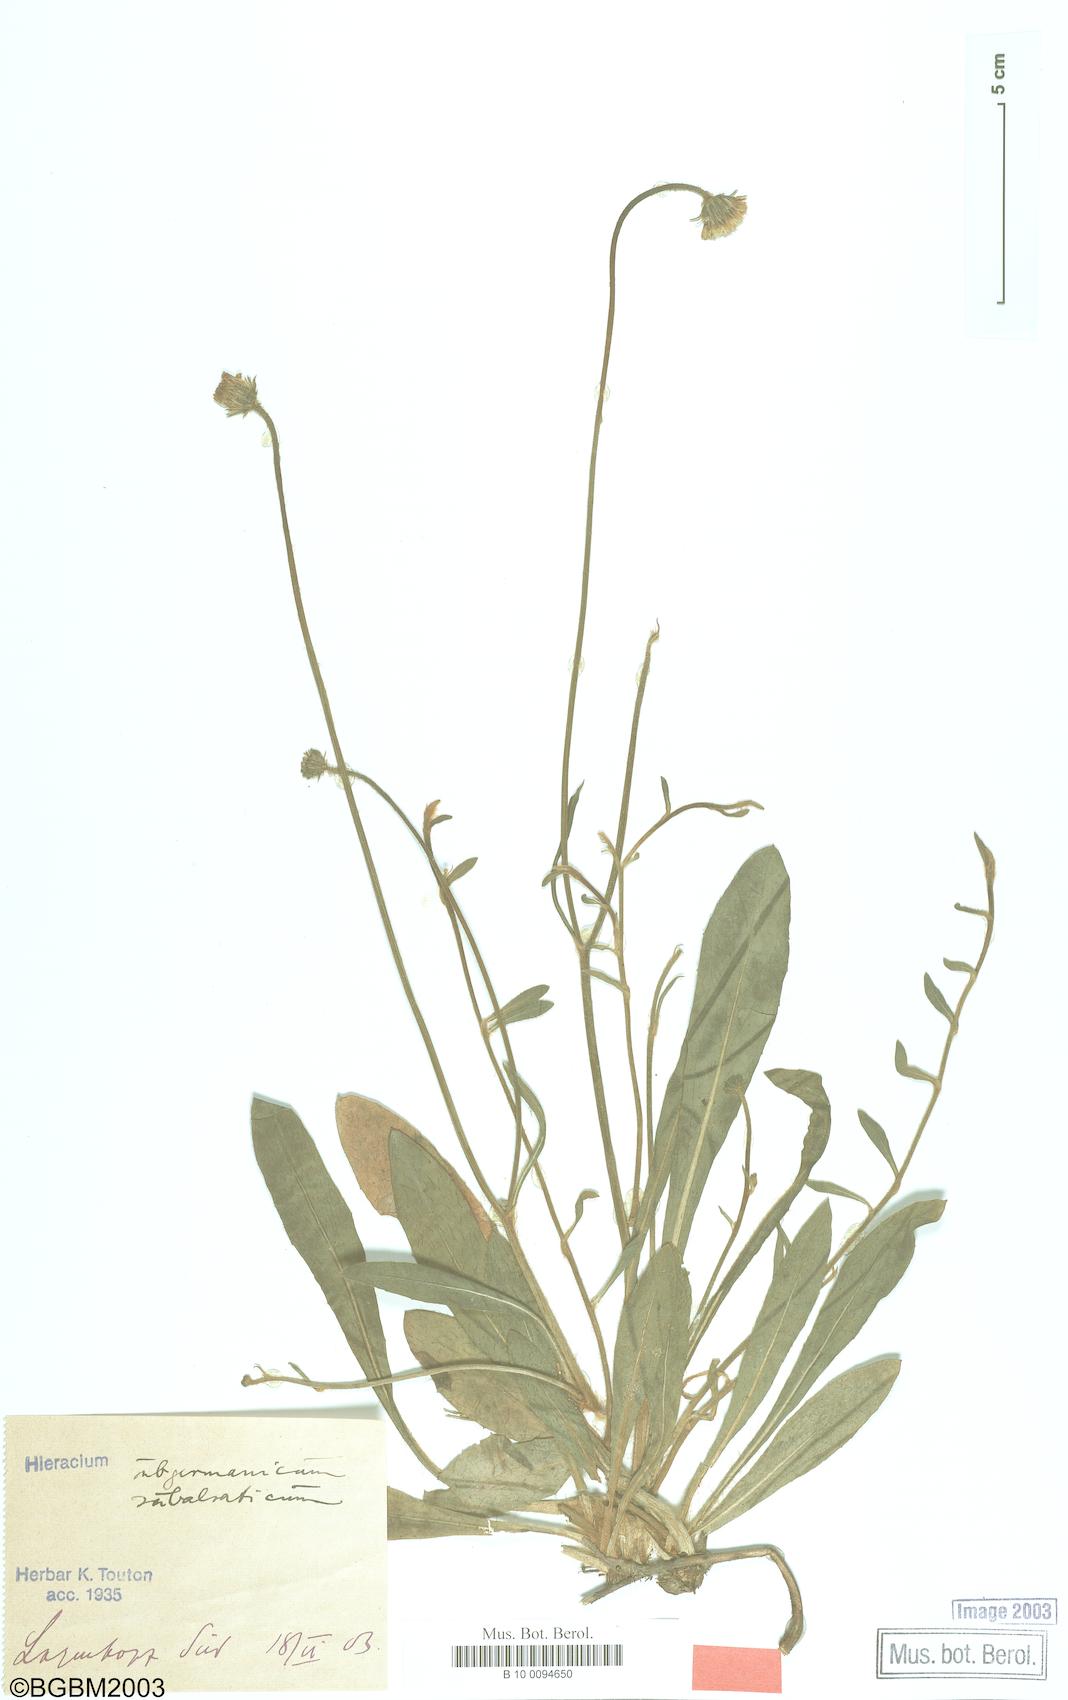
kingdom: Plantae
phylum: Tracheophyta
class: Magnoliopsida
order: Asterales
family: Asteraceae
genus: Pilosella
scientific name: Pilosella pilosellina
